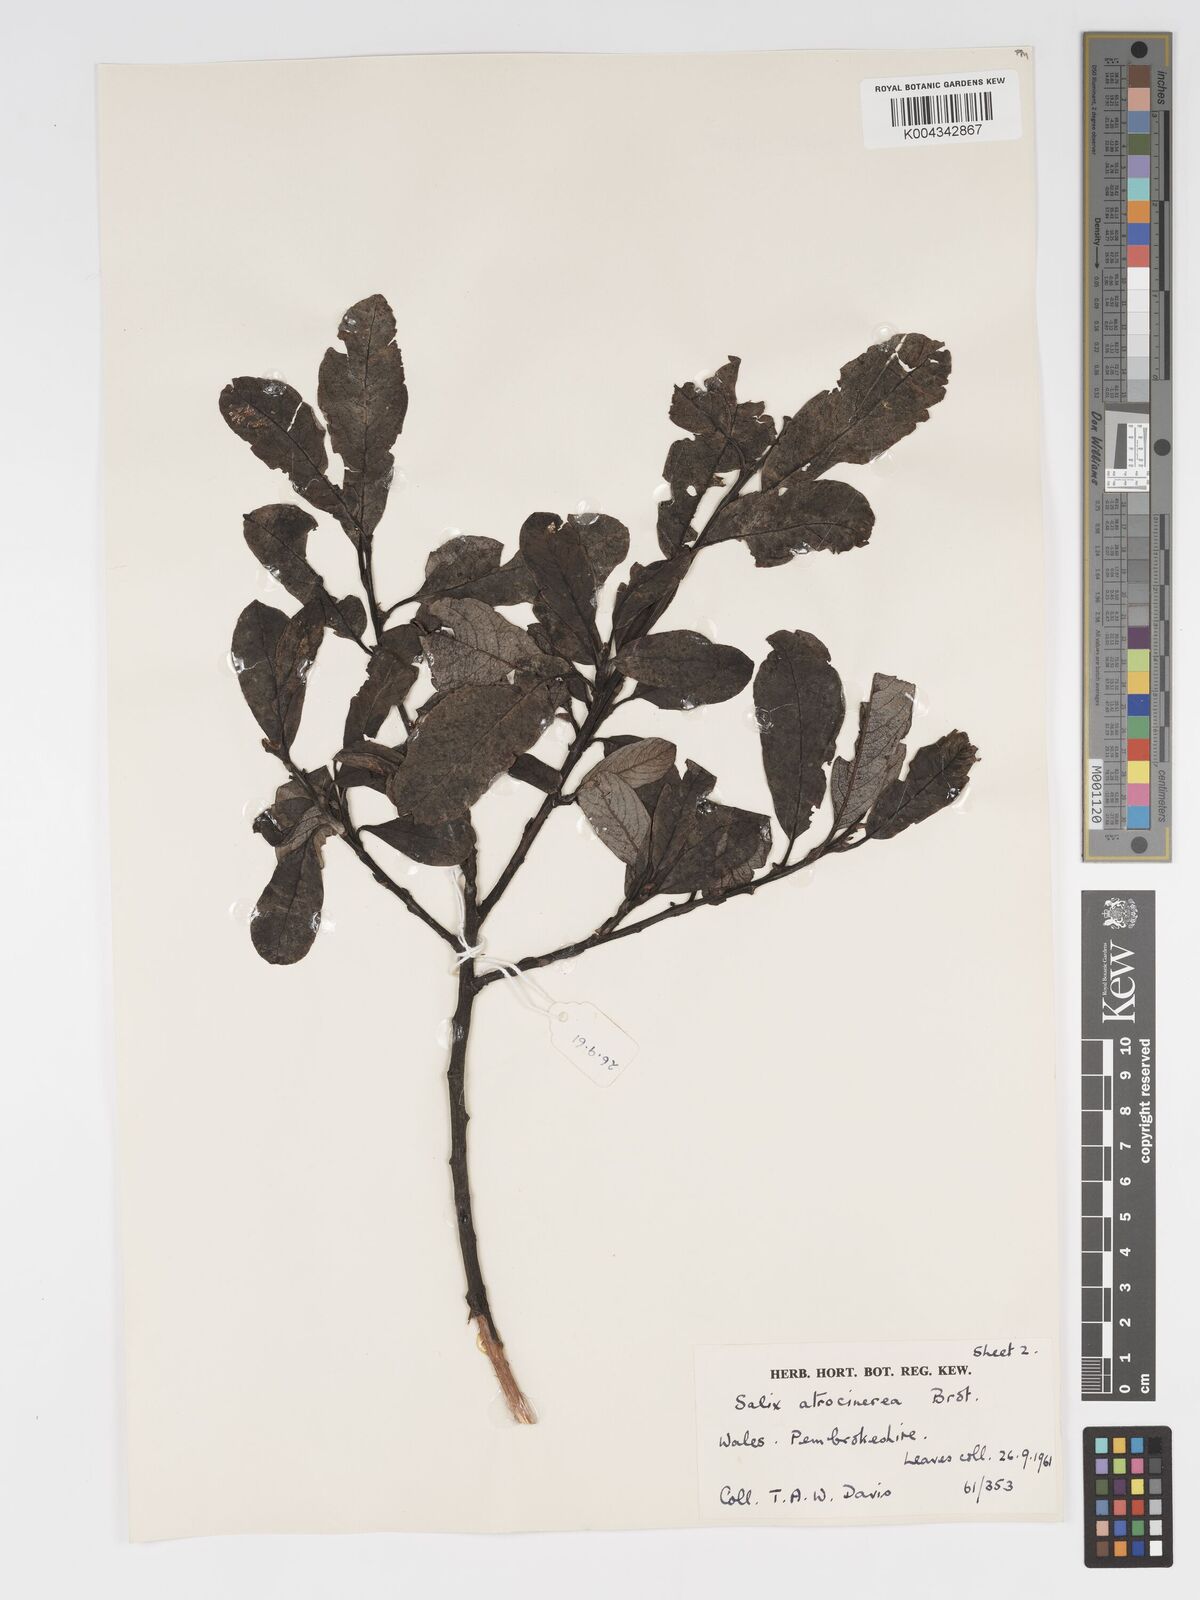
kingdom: Plantae
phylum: Tracheophyta
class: Magnoliopsida
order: Malpighiales
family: Salicaceae
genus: Salix
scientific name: Salix atrocinerea
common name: Rusty willow
